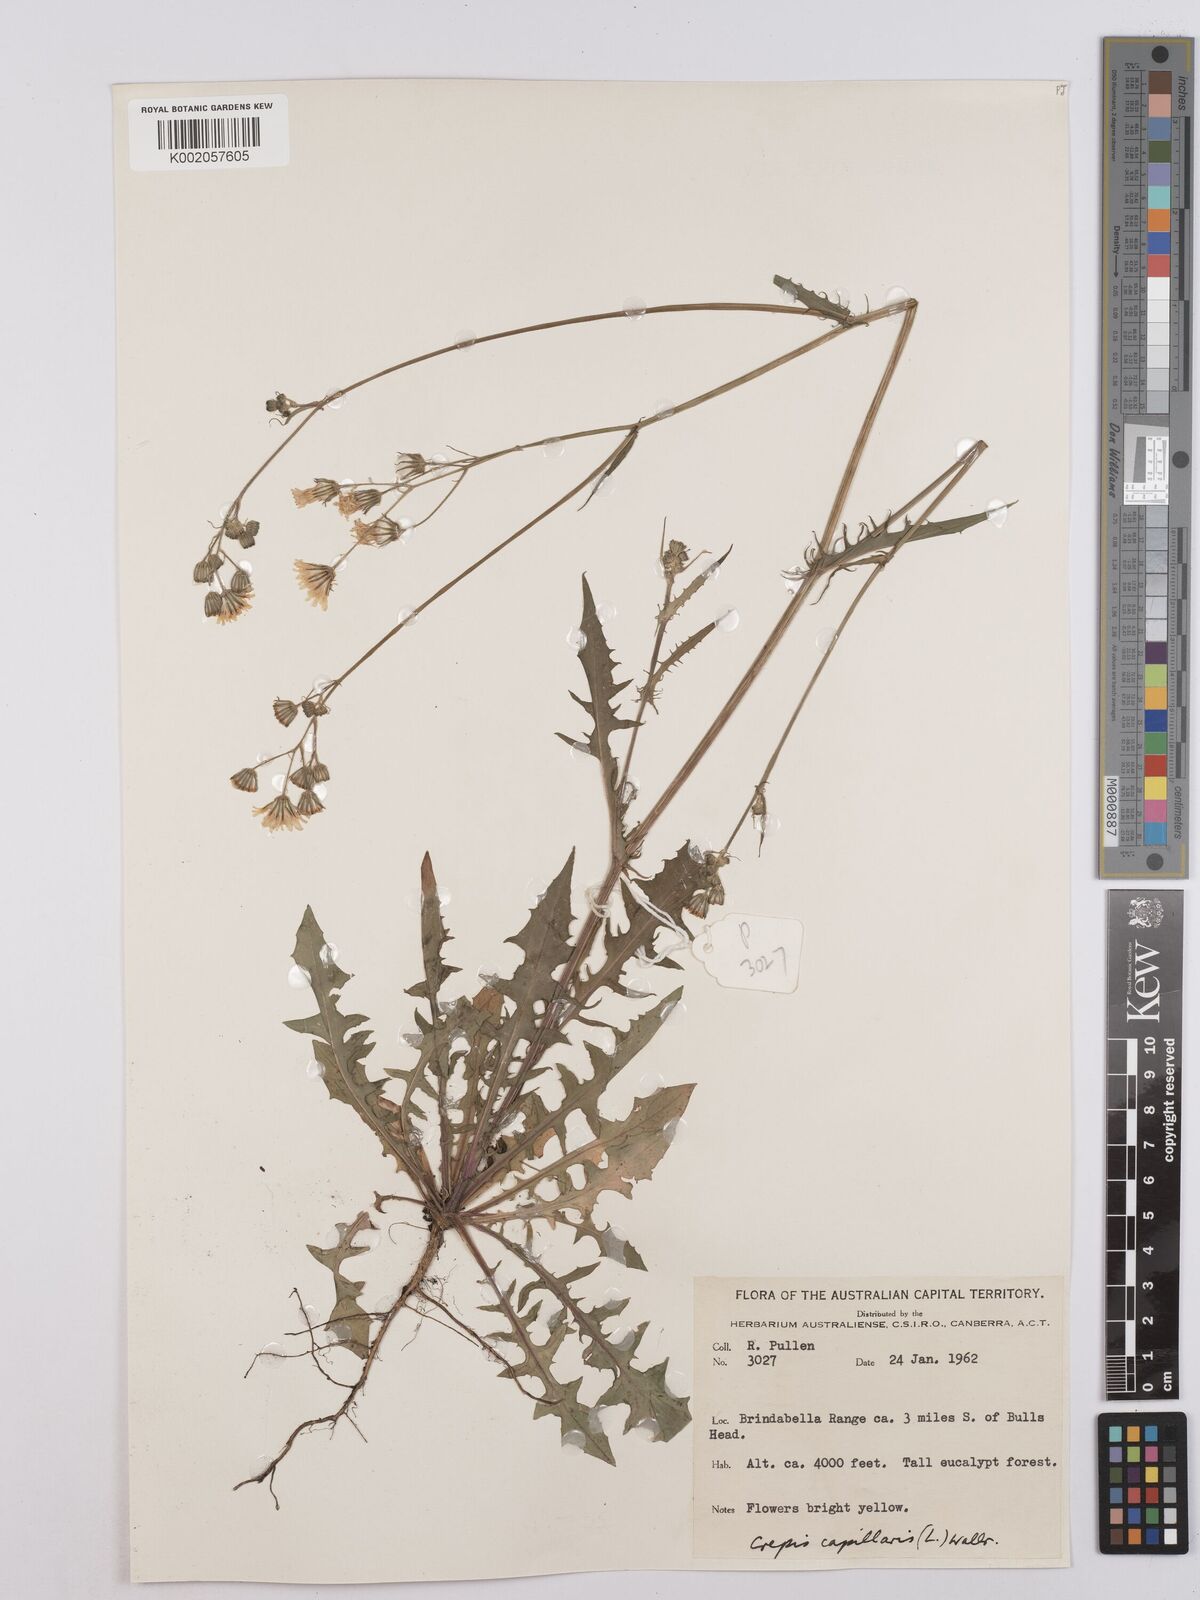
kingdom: Plantae
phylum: Tracheophyta
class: Magnoliopsida
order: Asterales
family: Asteraceae
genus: Crepis
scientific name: Crepis capillaris
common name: Smooth hawksbeard
